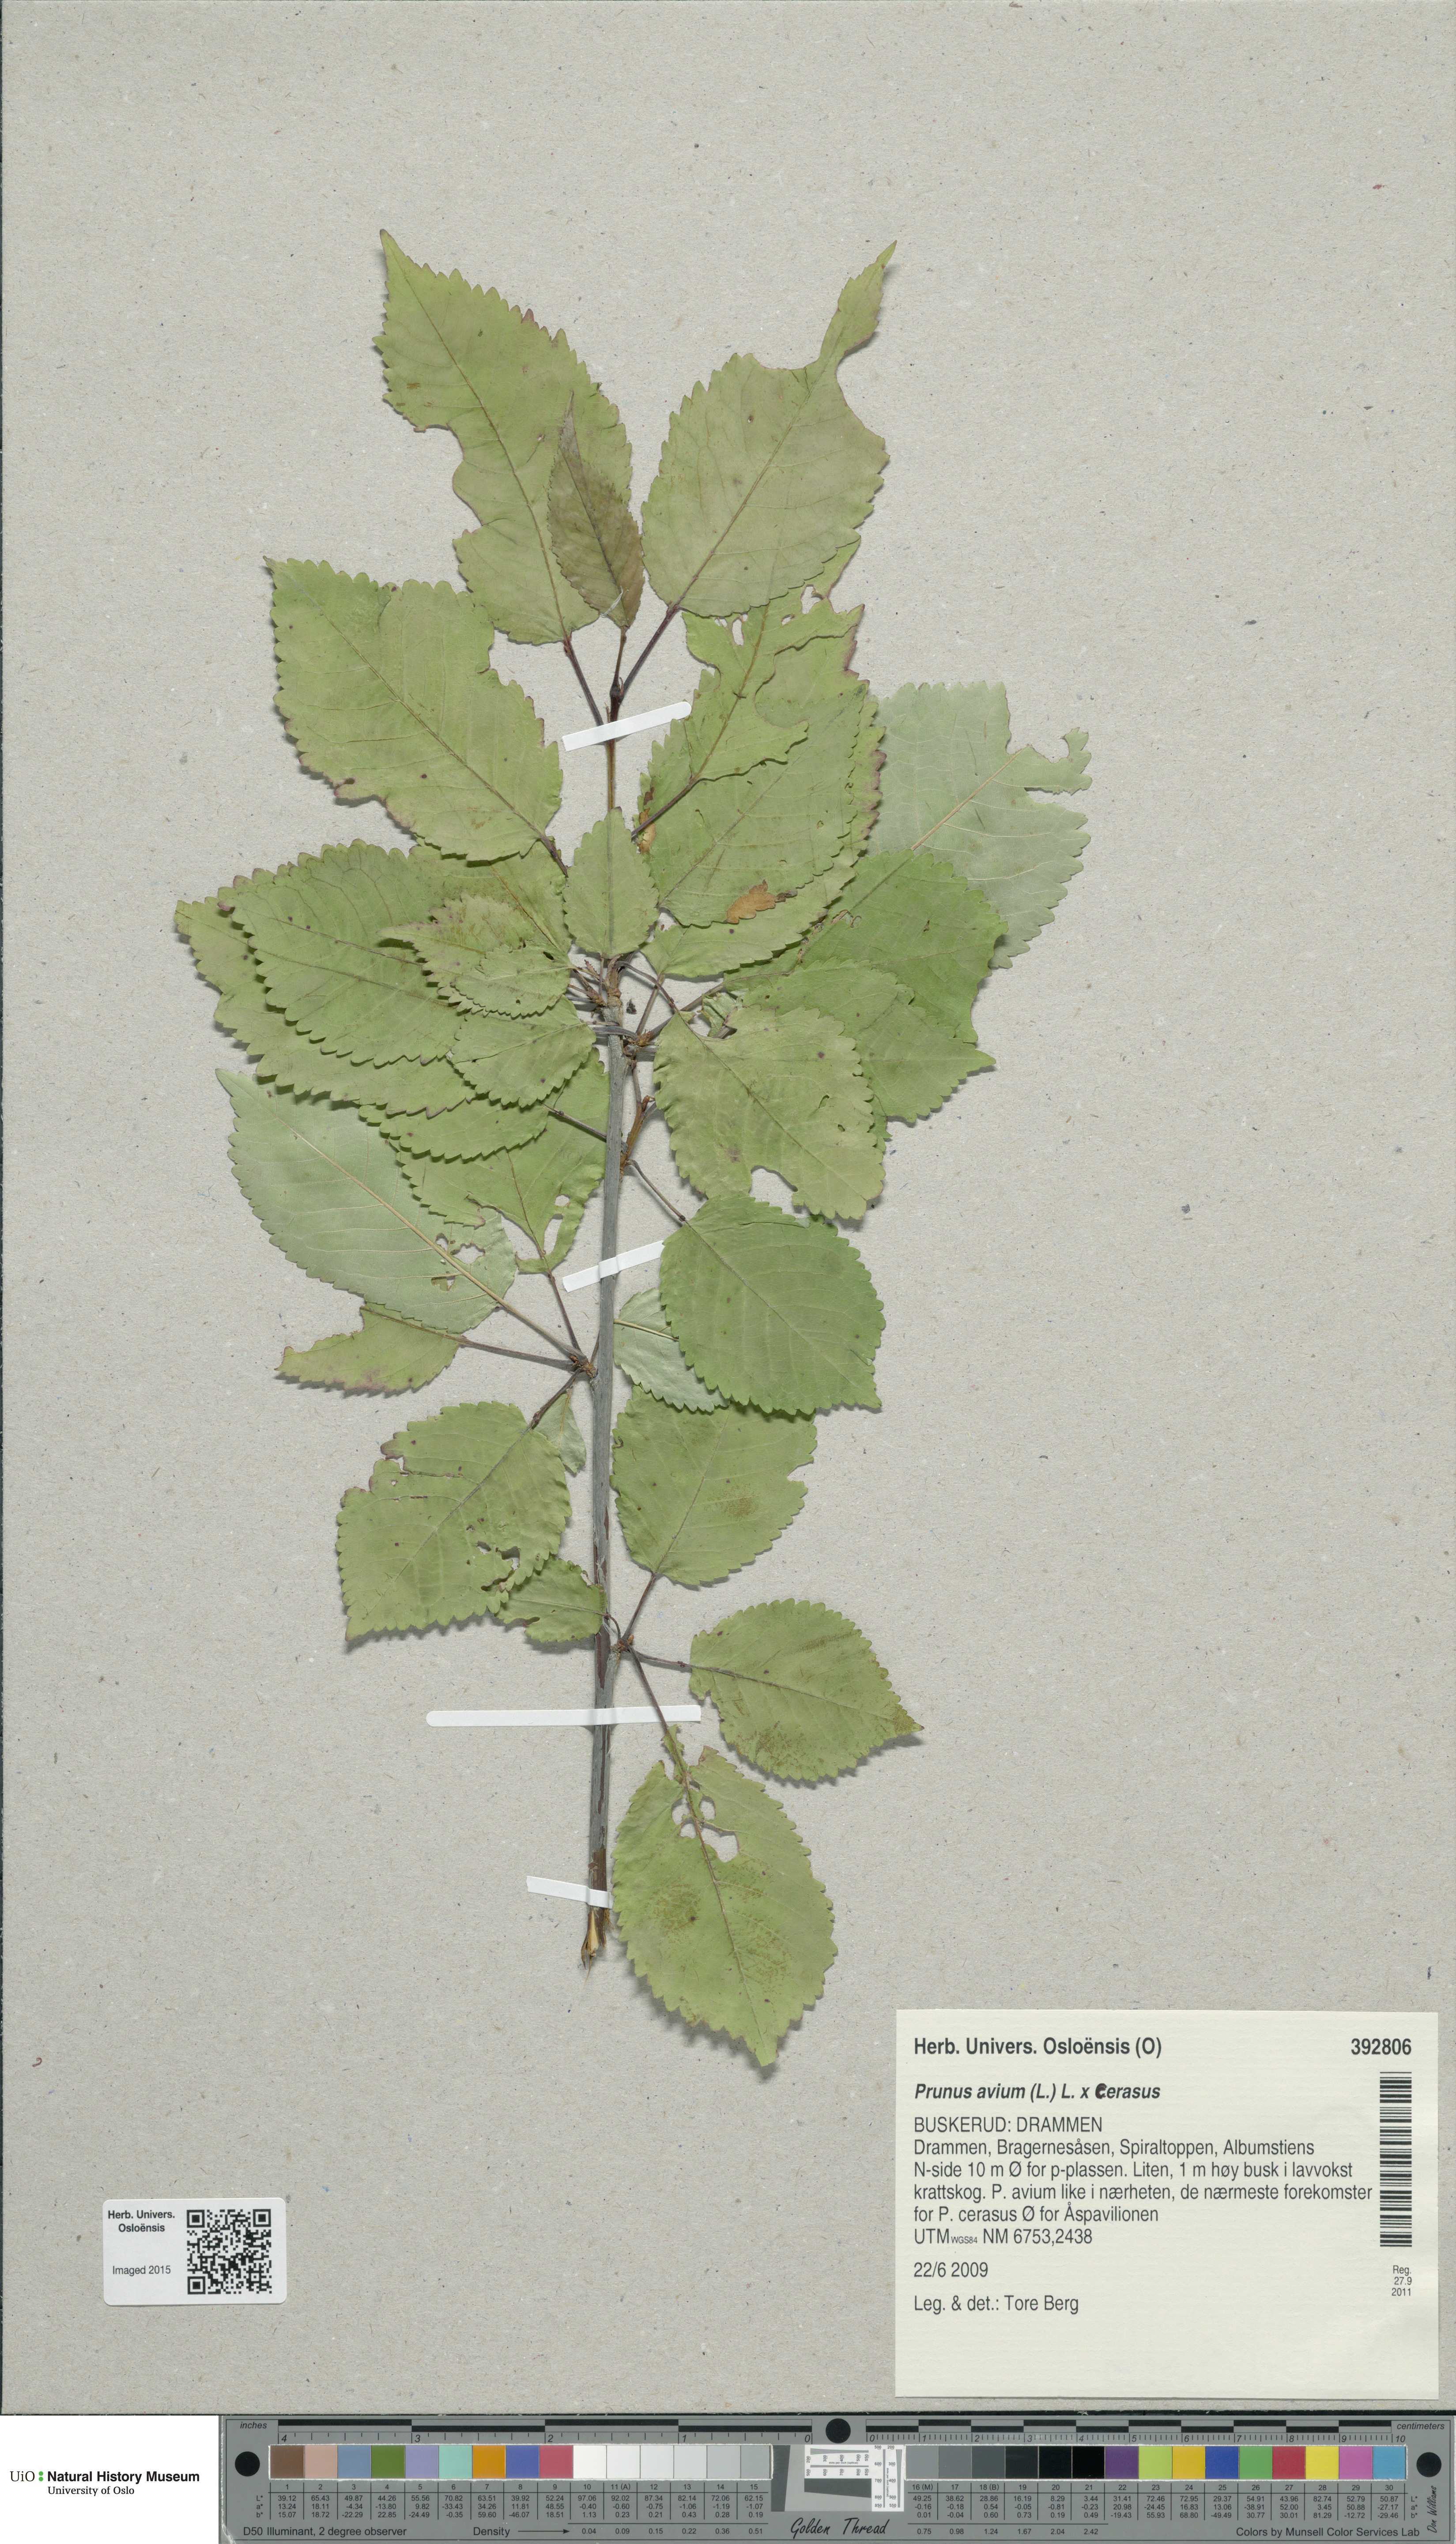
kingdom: Plantae
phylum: Tracheophyta
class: Magnoliopsida
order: Rosales
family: Rosaceae
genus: Prunus
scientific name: Prunus
